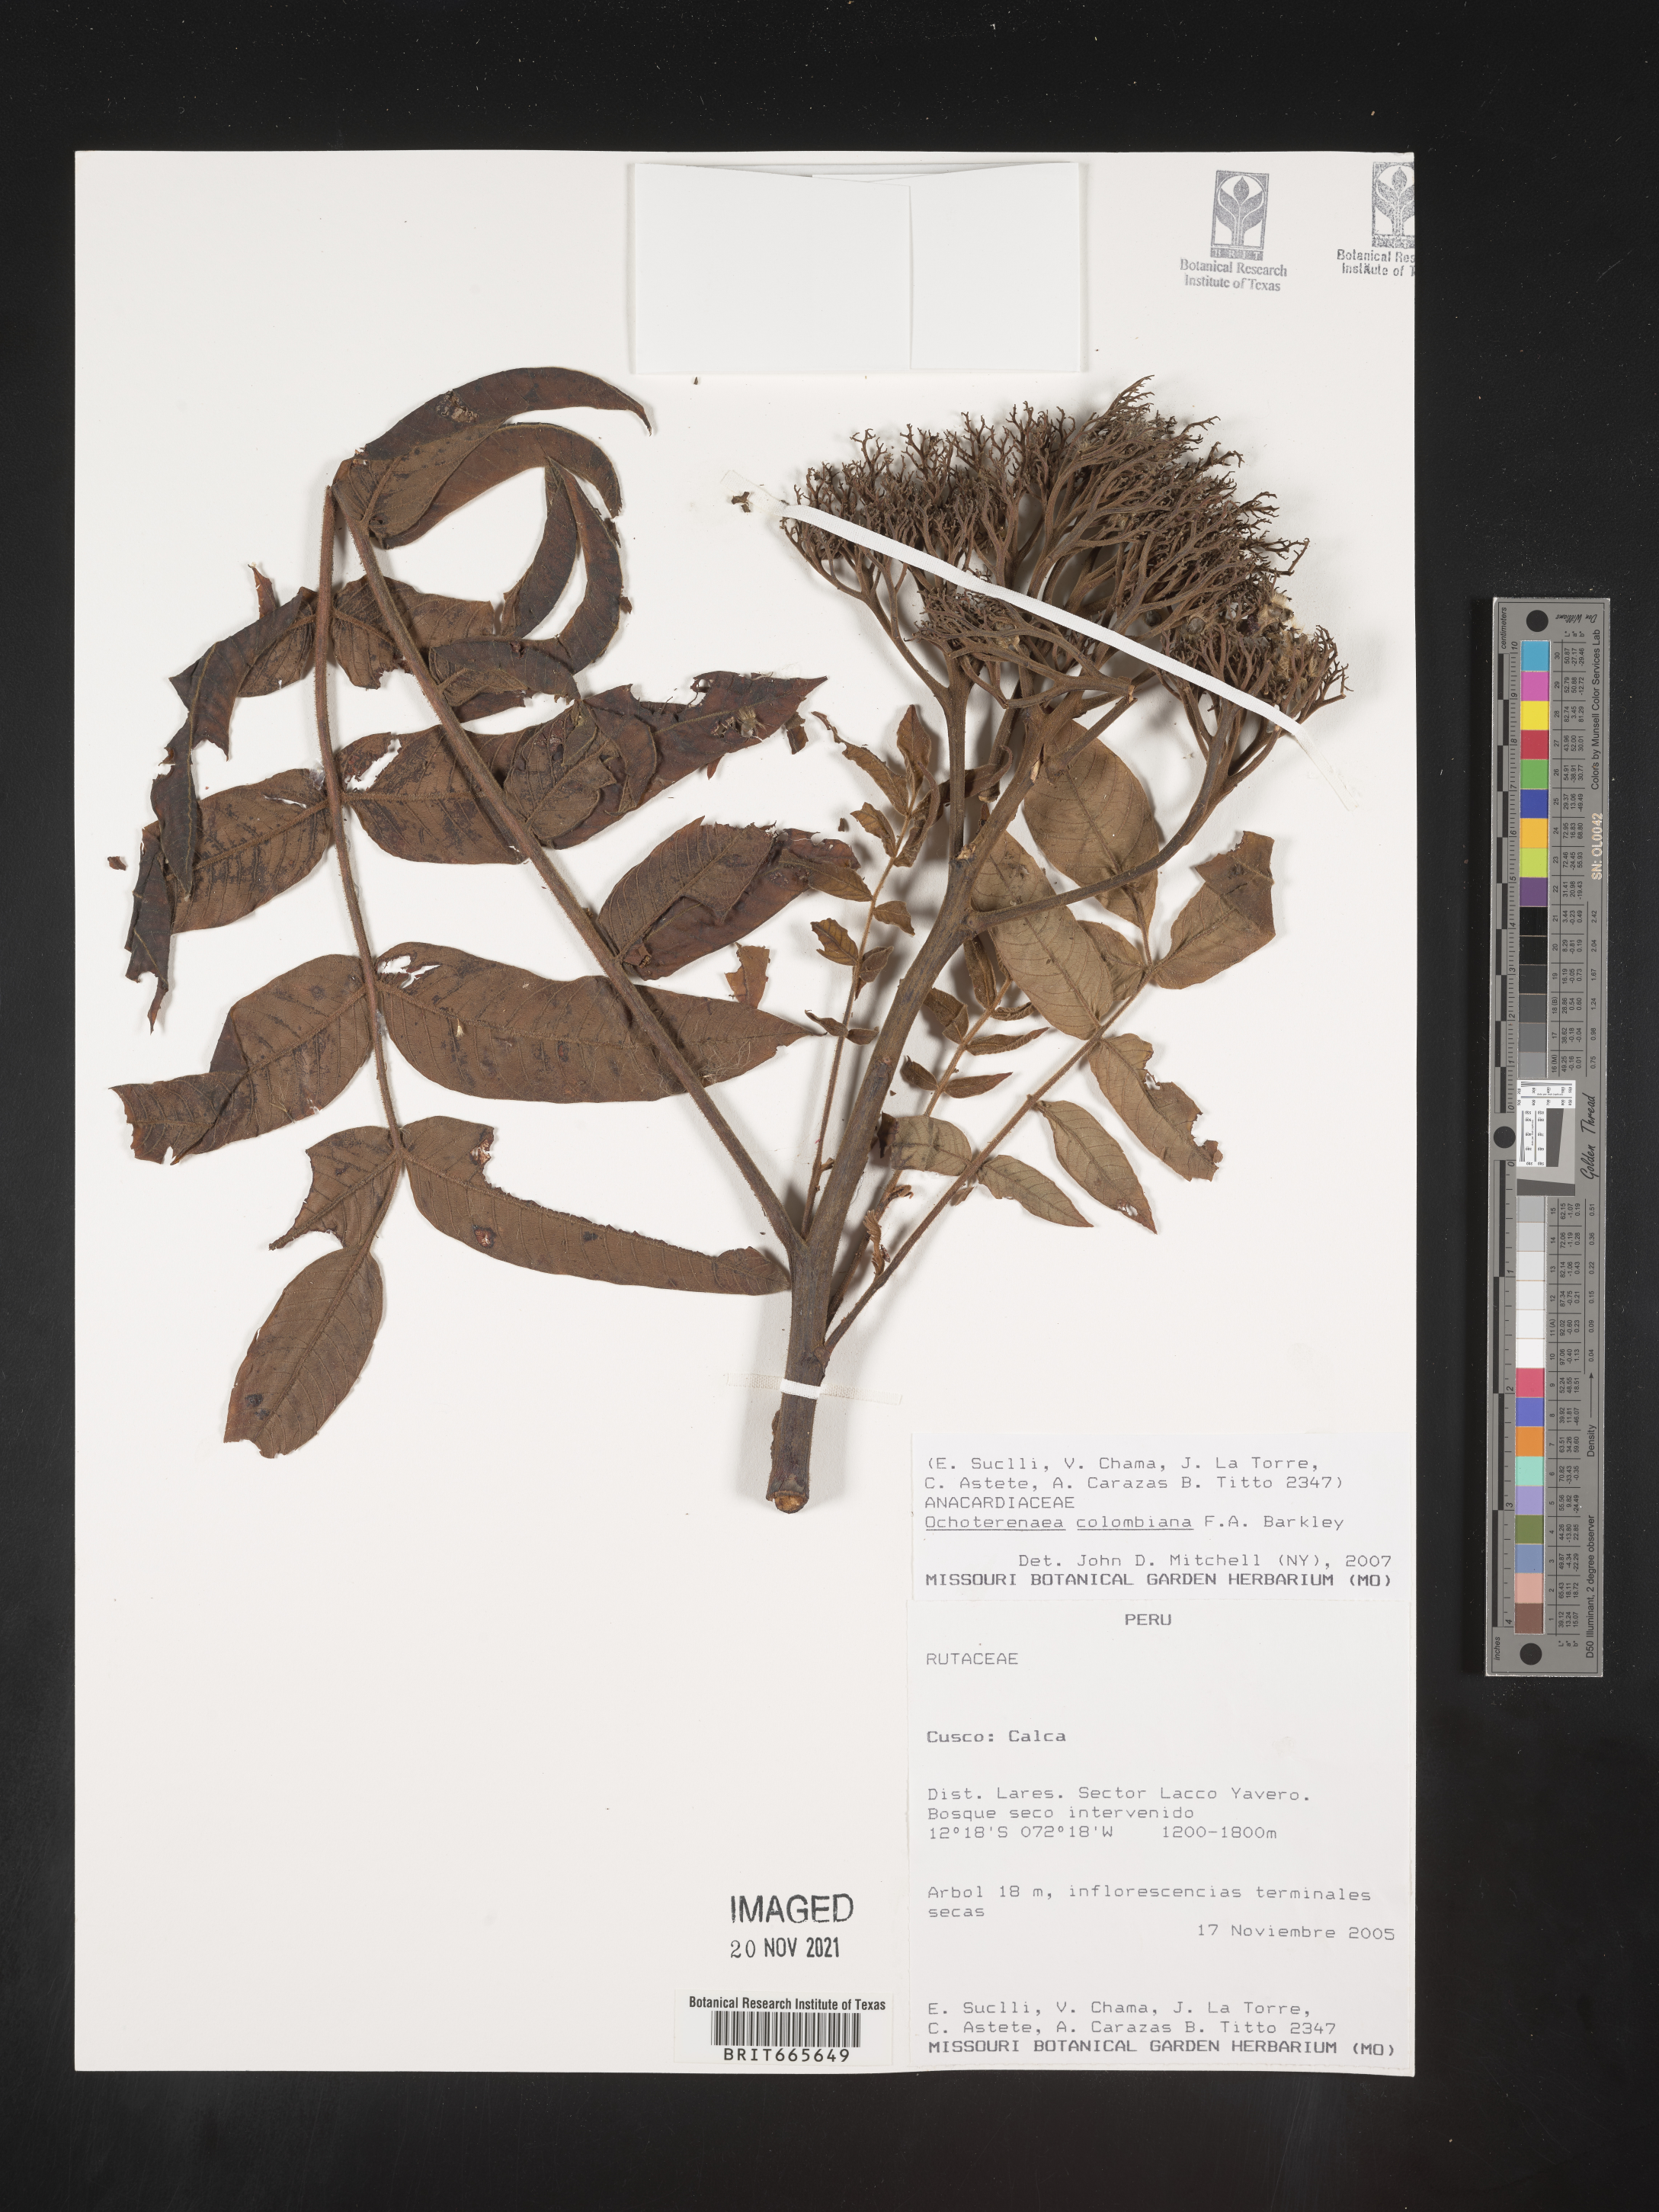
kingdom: Plantae
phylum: Tracheophyta
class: Magnoliopsida
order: Sapindales
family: Anacardiaceae
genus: Ochoterenaea
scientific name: Ochoterenaea
